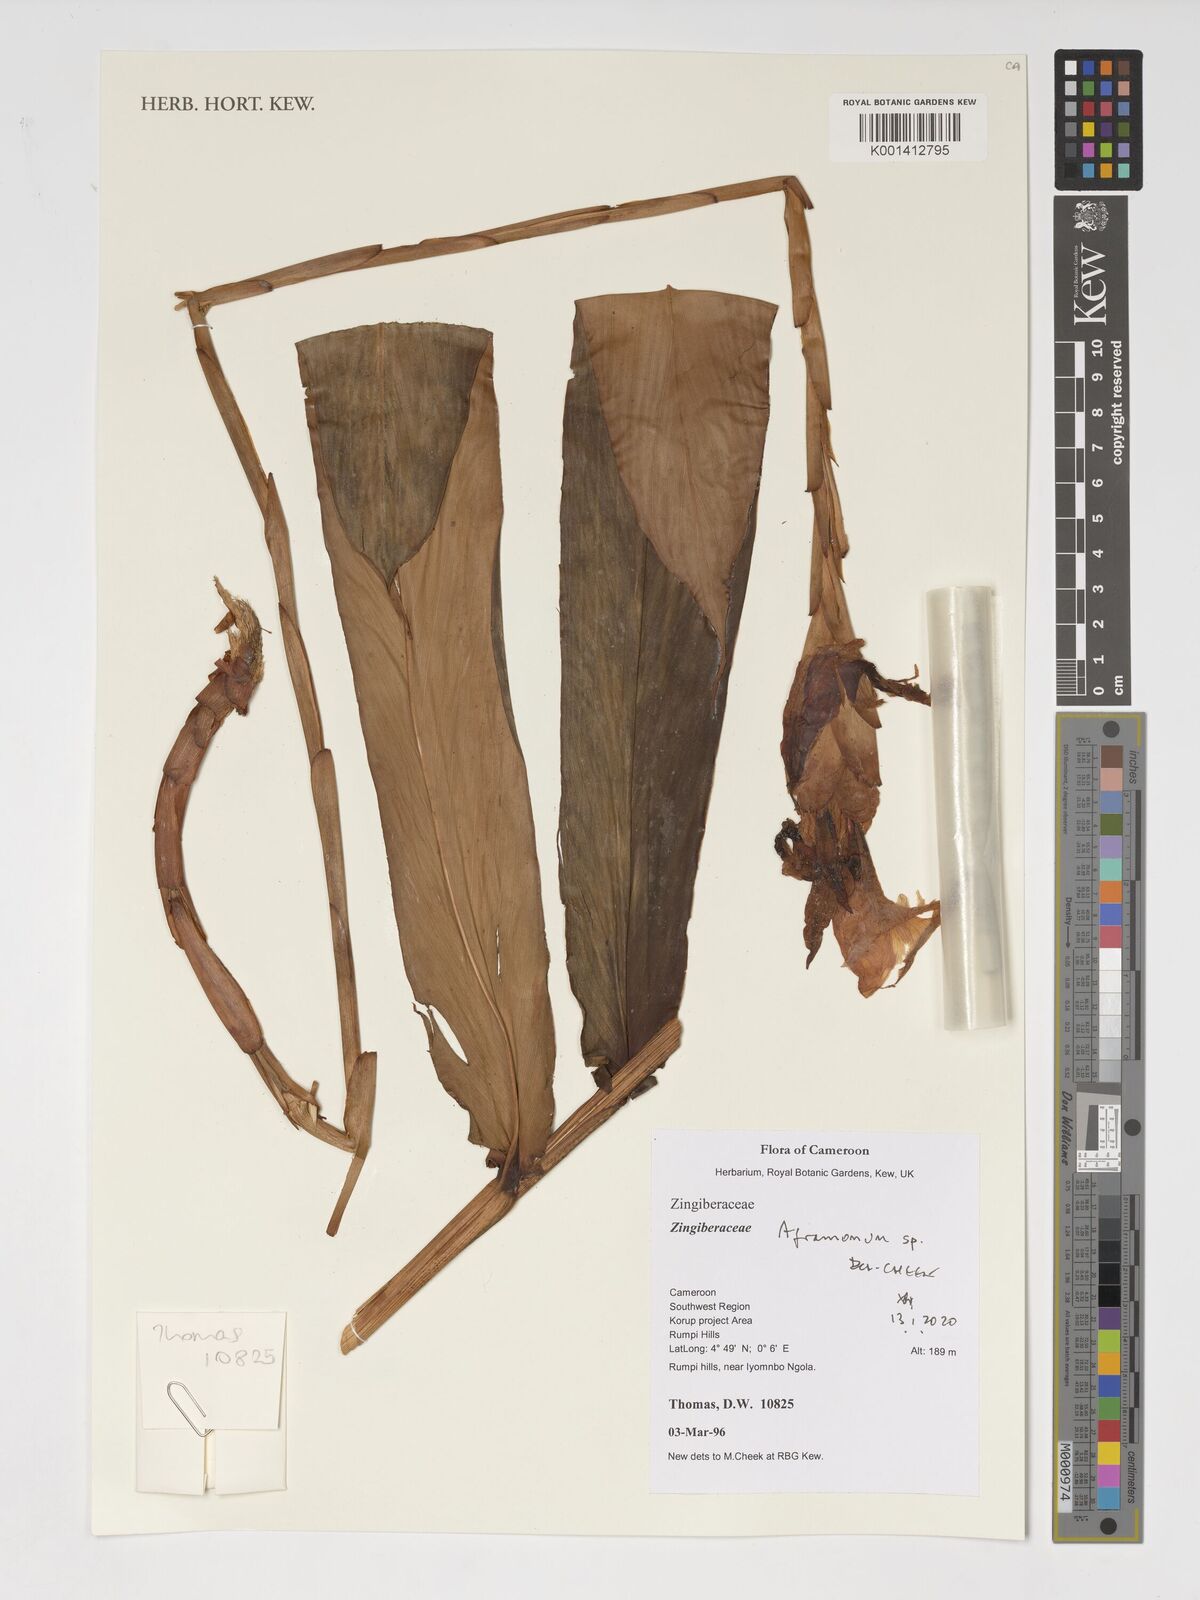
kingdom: Plantae
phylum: Tracheophyta
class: Liliopsida
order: Zingiberales
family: Zingiberaceae
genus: Aframomum
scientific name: Aframomum
